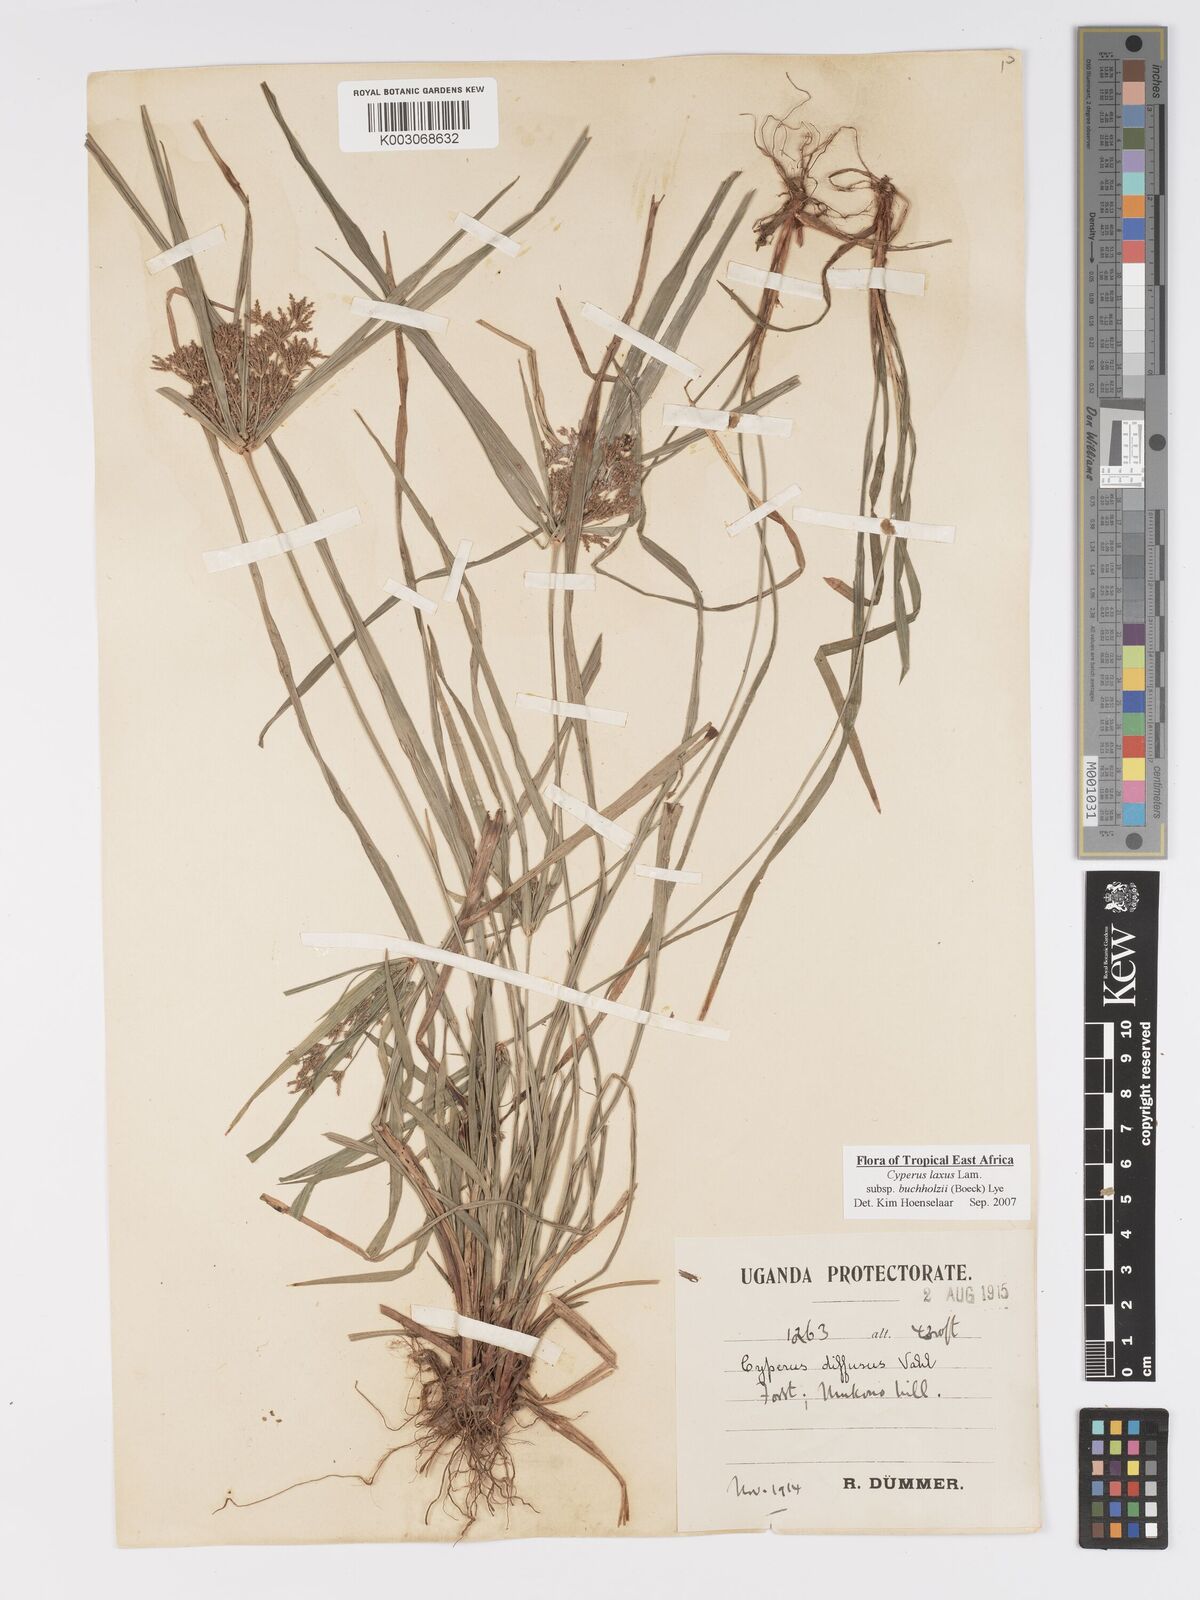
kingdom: Plantae
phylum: Tracheophyta
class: Liliopsida
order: Poales
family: Cyperaceae
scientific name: Cyperaceae
